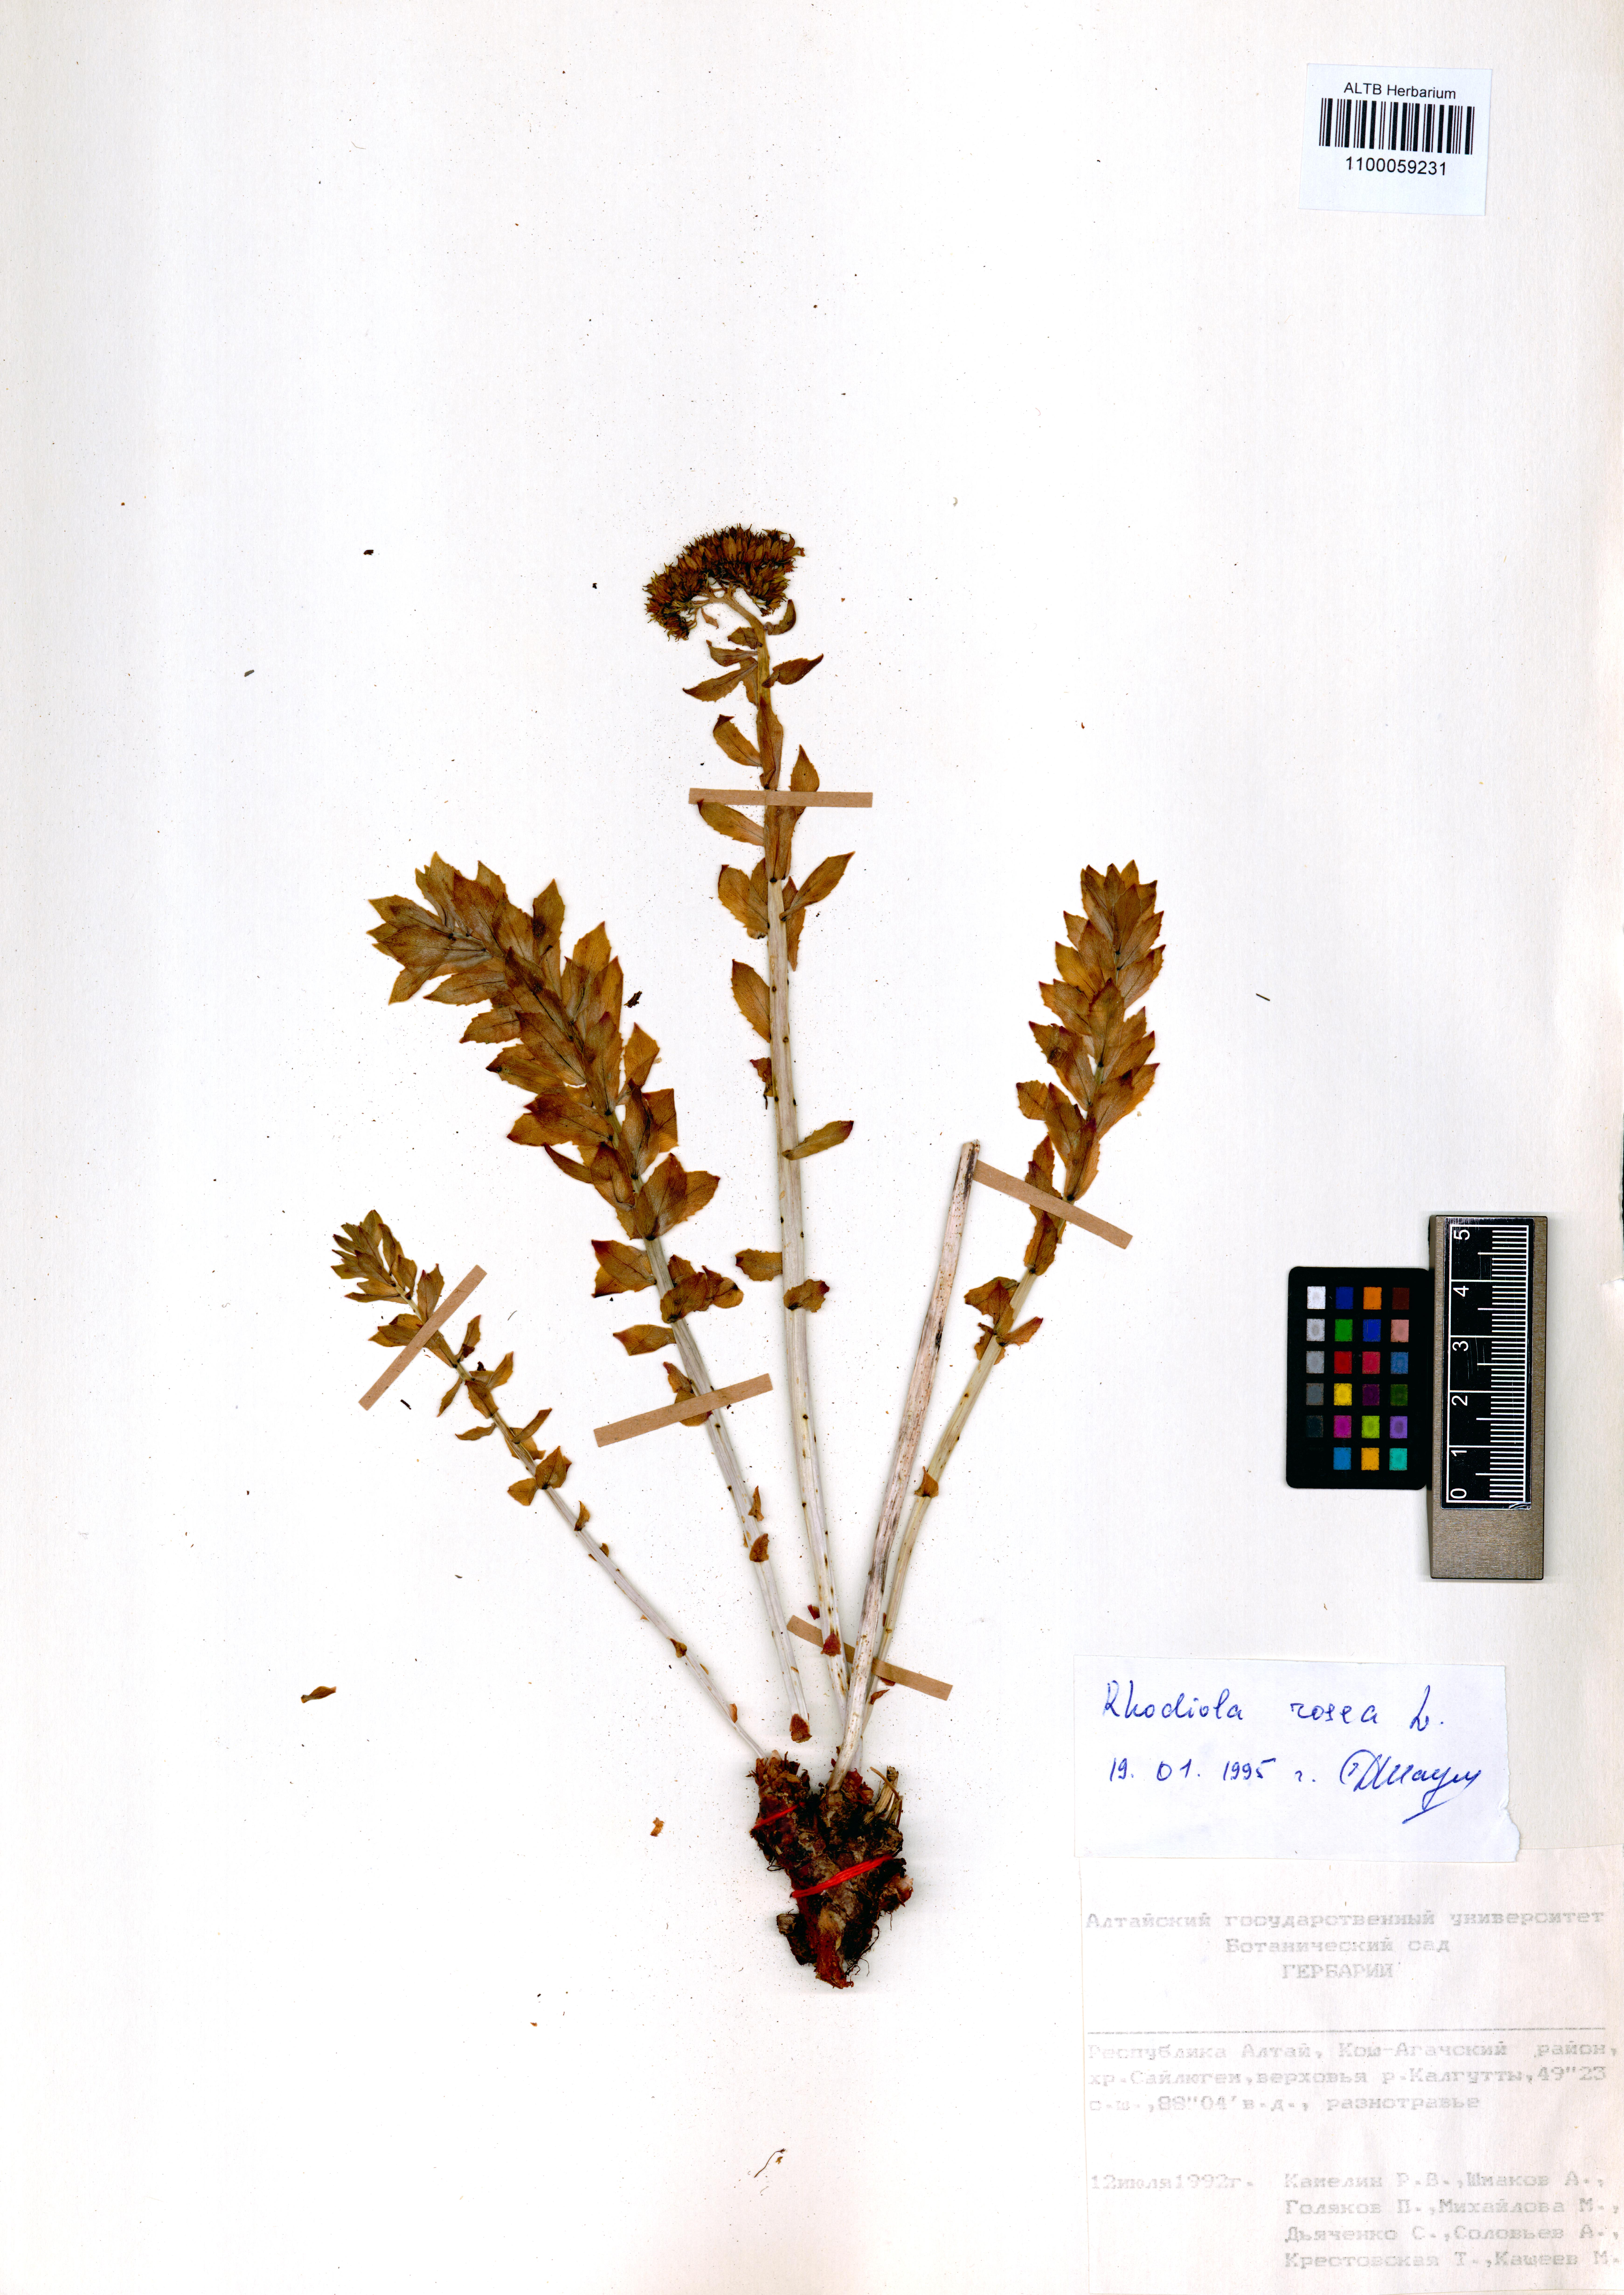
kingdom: Plantae
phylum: Tracheophyta
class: Magnoliopsida
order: Saxifragales
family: Crassulaceae
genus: Rhodiola
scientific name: Rhodiola rosea
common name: Roseroot
